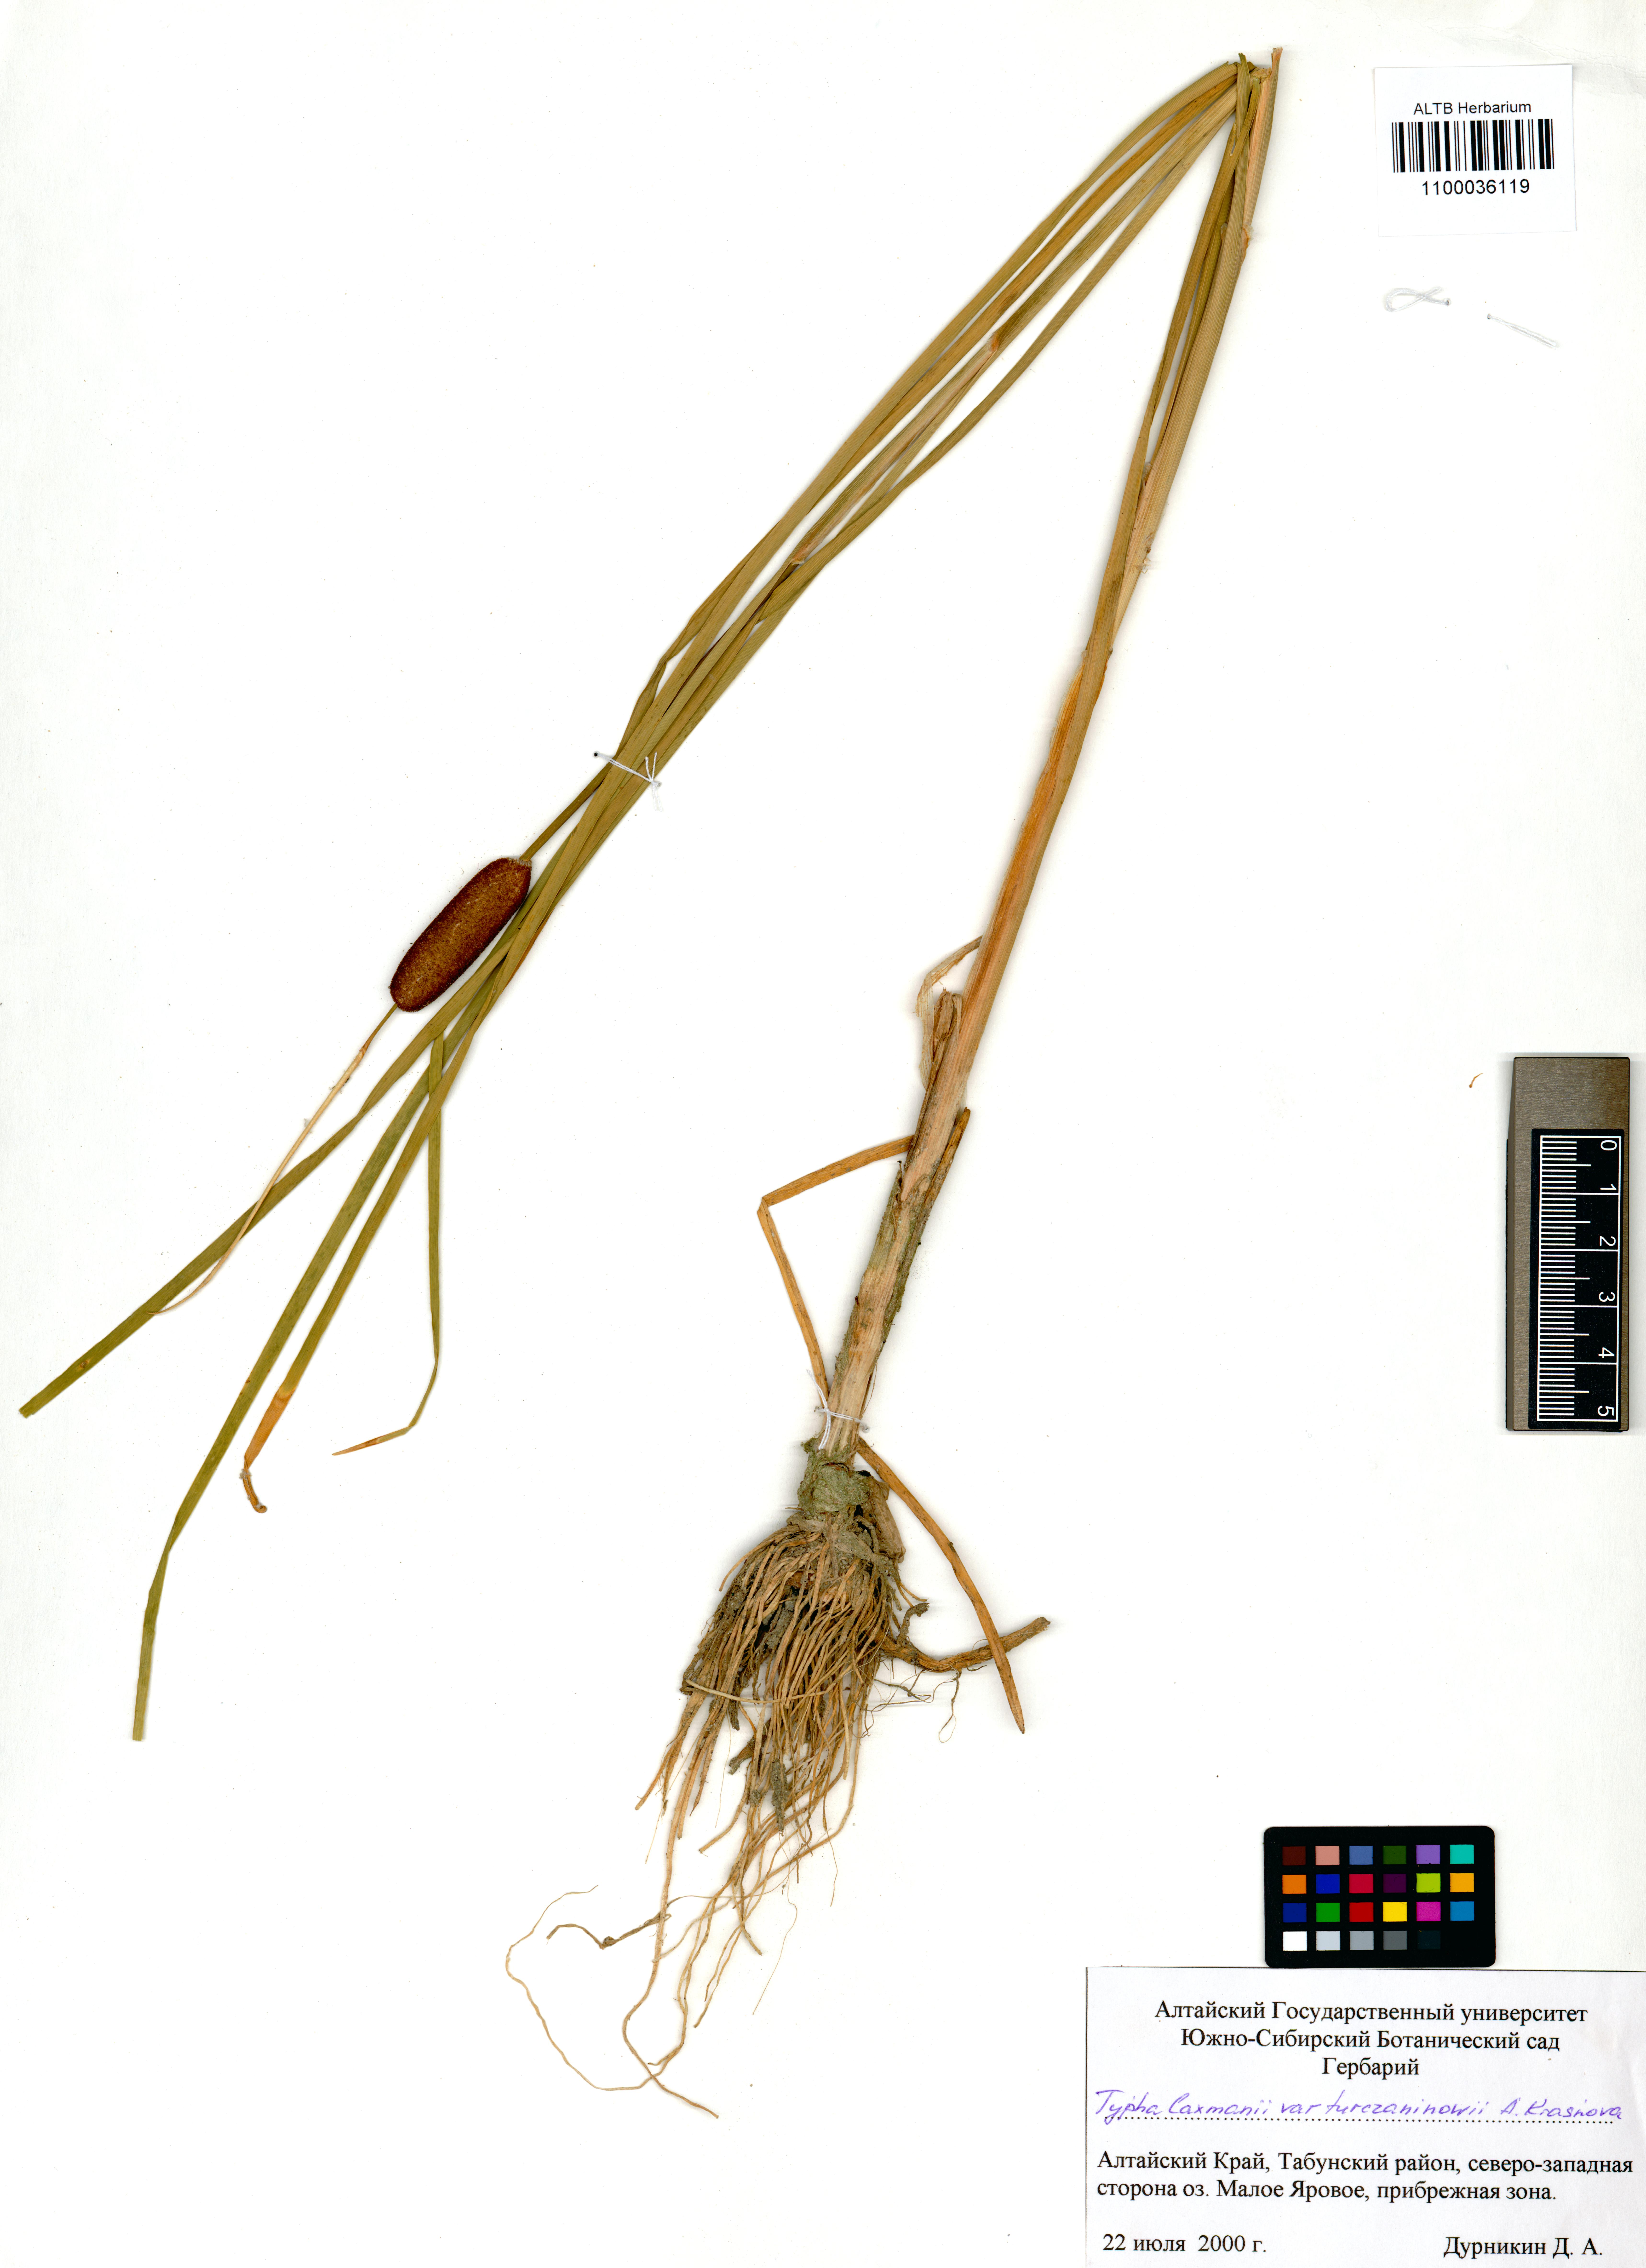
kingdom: Plantae
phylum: Tracheophyta
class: Liliopsida
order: Poales
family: Typhaceae
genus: Typha
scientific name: Typha laxmannii
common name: Laxman’s bulrush
